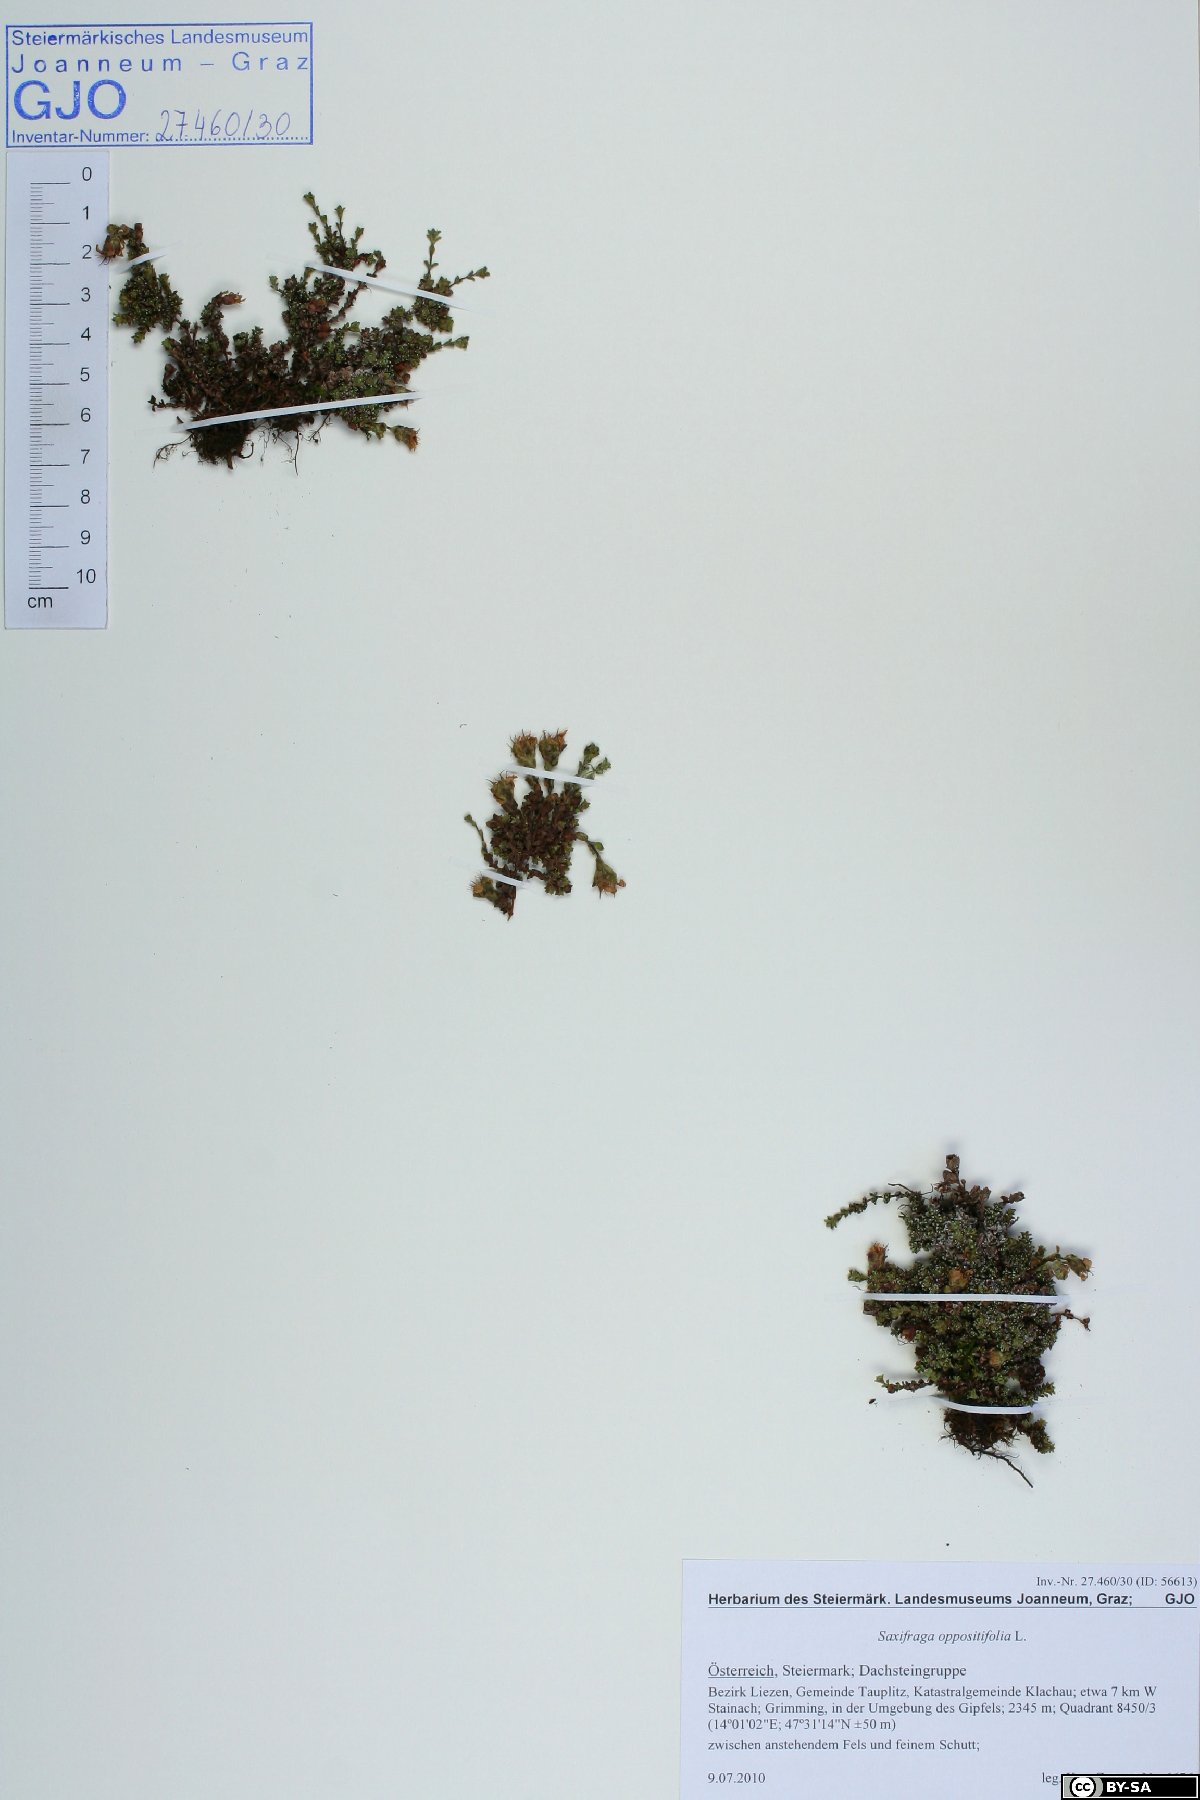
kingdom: Plantae
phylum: Tracheophyta
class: Magnoliopsida
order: Saxifragales
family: Saxifragaceae
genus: Saxifraga
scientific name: Saxifraga oppositifolia
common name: Purple saxifrage
